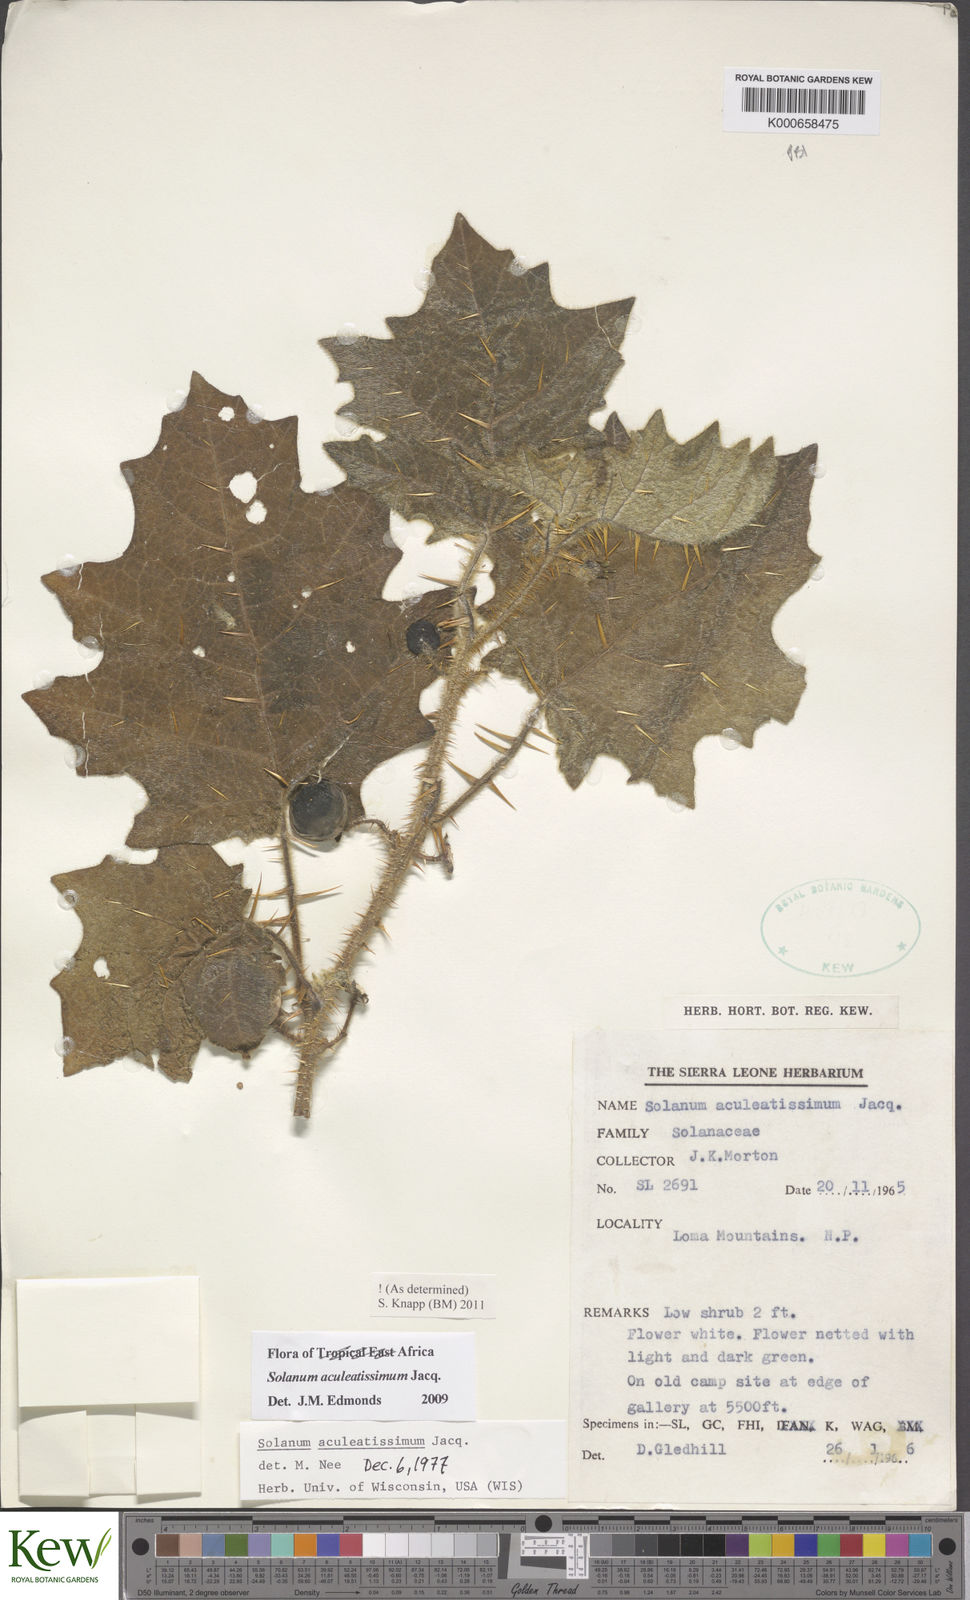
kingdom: Plantae
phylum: Tracheophyta
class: Magnoliopsida
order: Solanales
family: Solanaceae
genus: Solanum
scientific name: Solanum aculeatissimum
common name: Dutch eggplant
